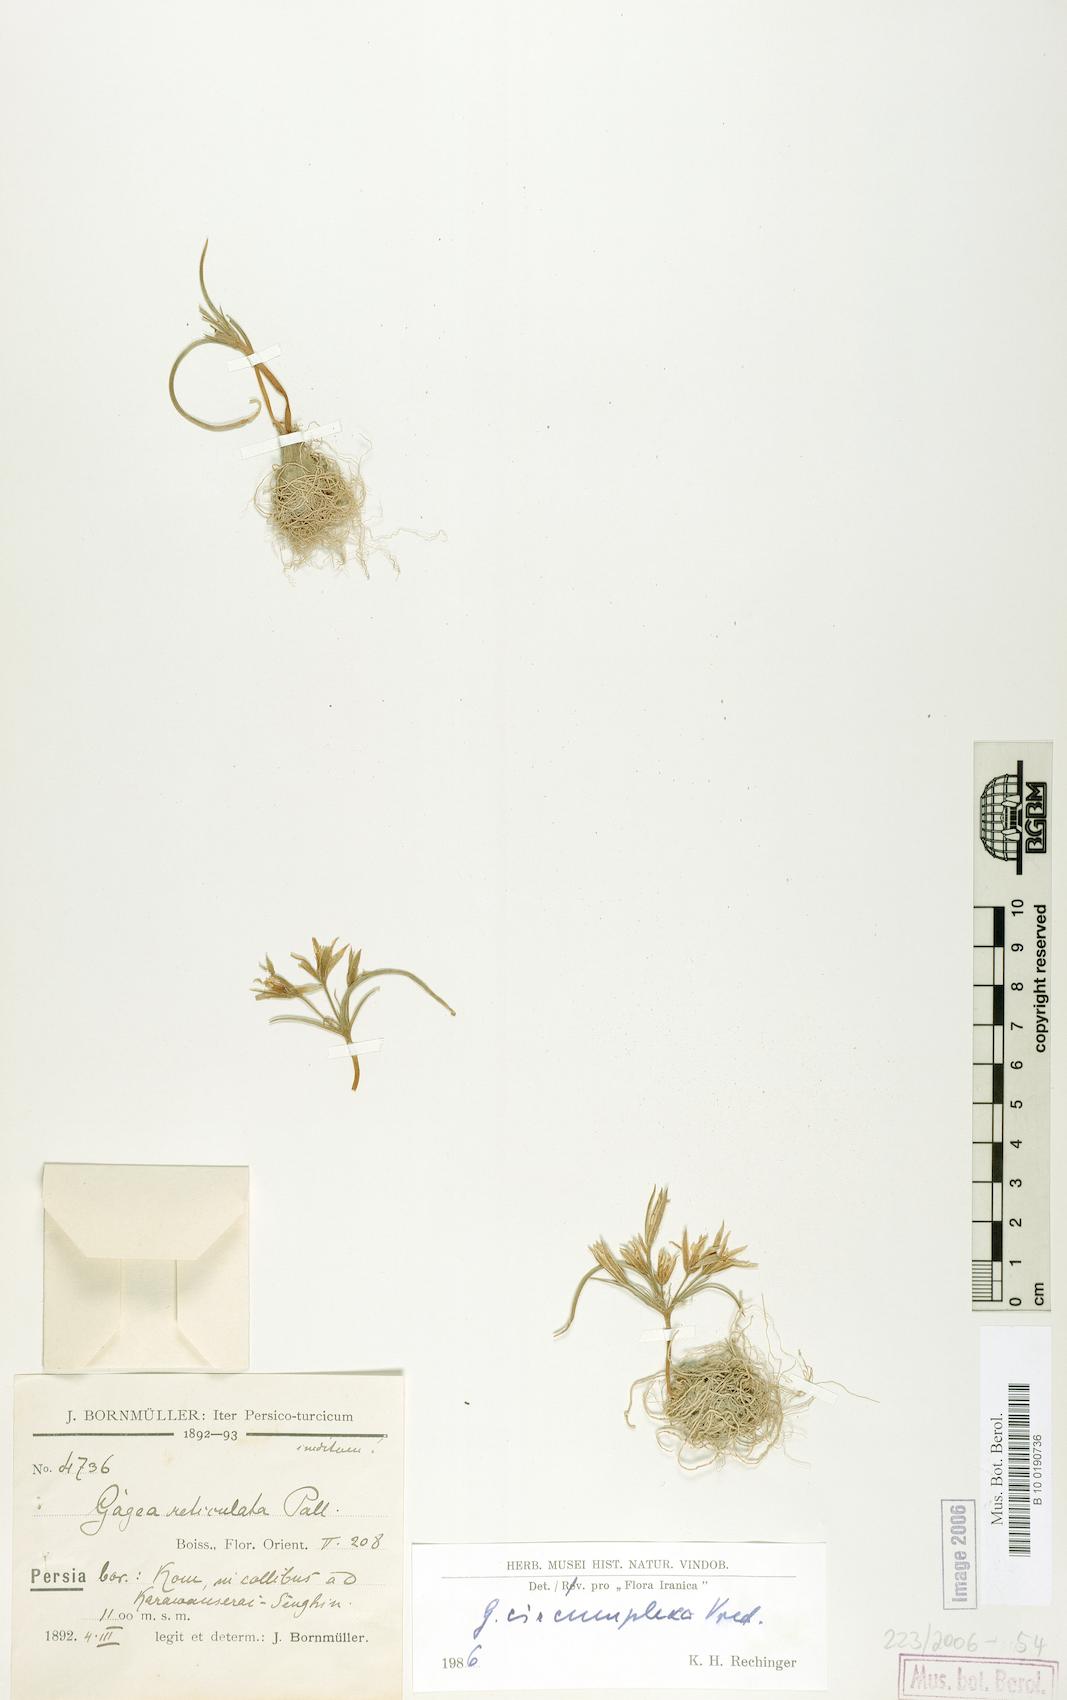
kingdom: Plantae
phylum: Tracheophyta
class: Liliopsida
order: Liliales
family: Liliaceae
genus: Gagea
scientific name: Gagea circumplexa
